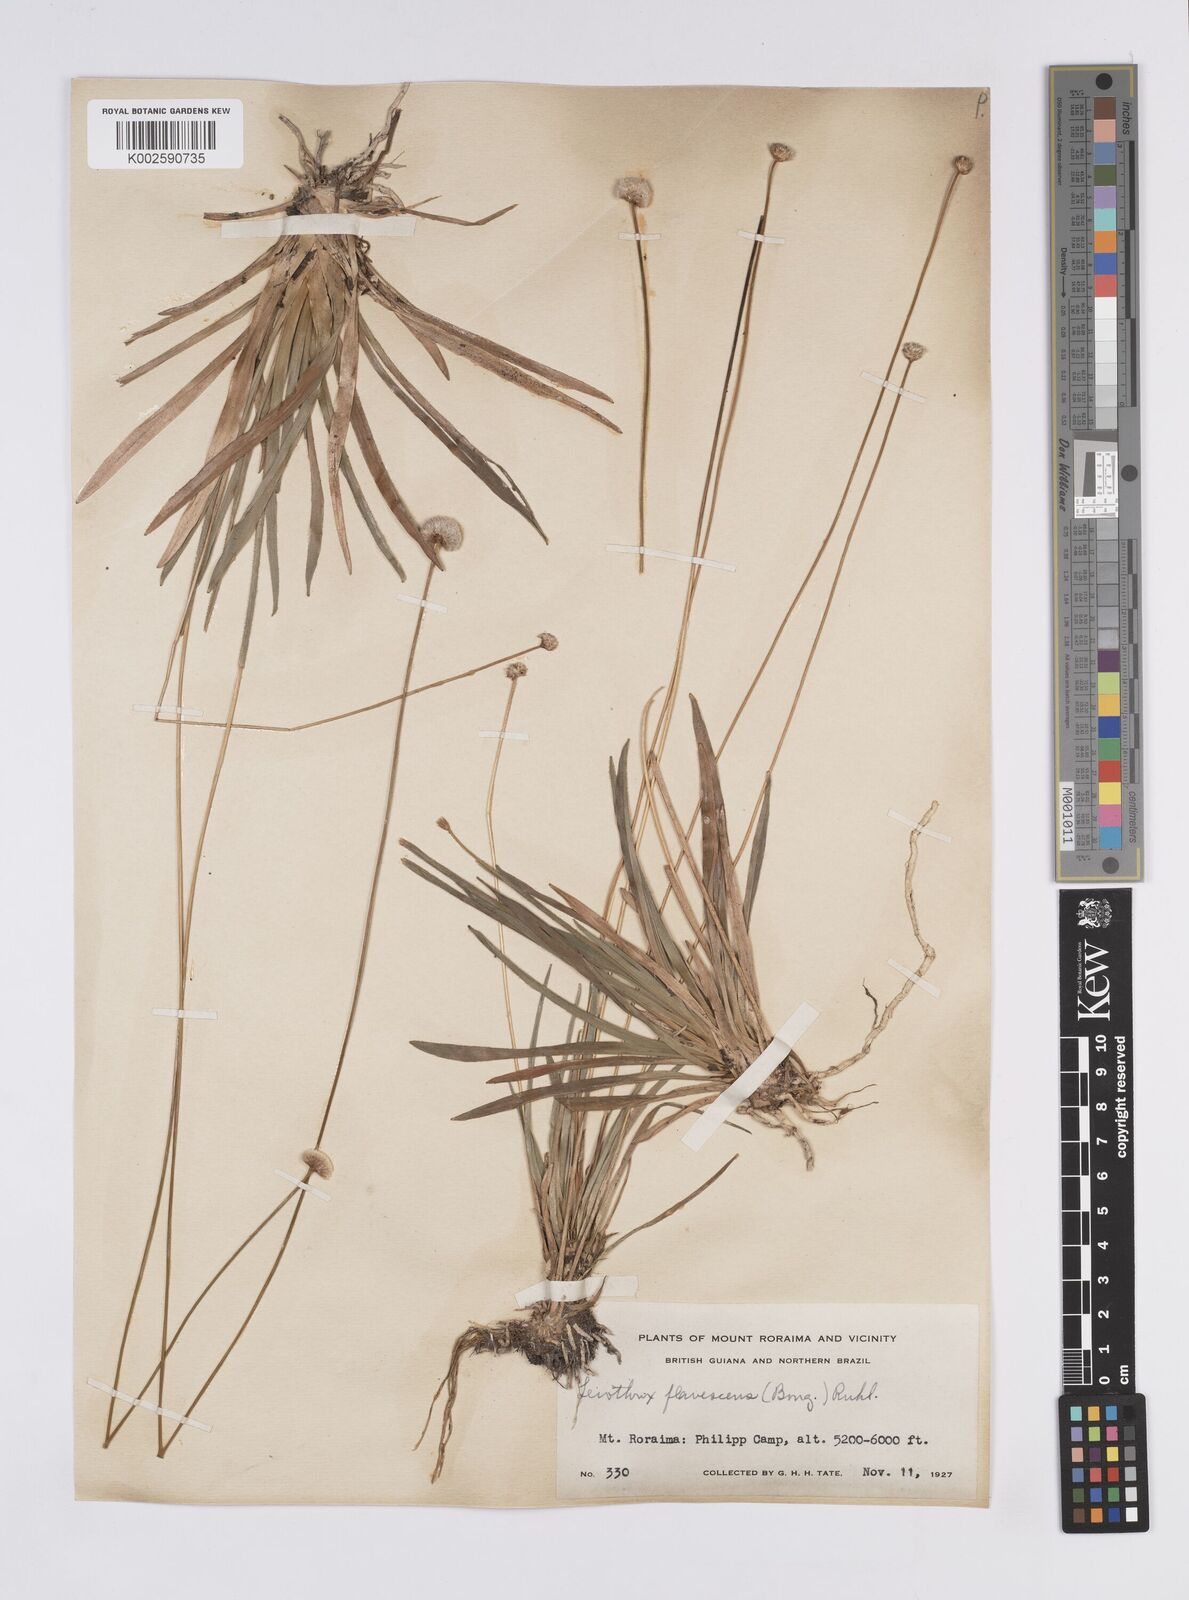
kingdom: Plantae
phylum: Tracheophyta
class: Liliopsida
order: Poales
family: Eriocaulaceae
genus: Leiothrix
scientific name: Leiothrix flavescens
